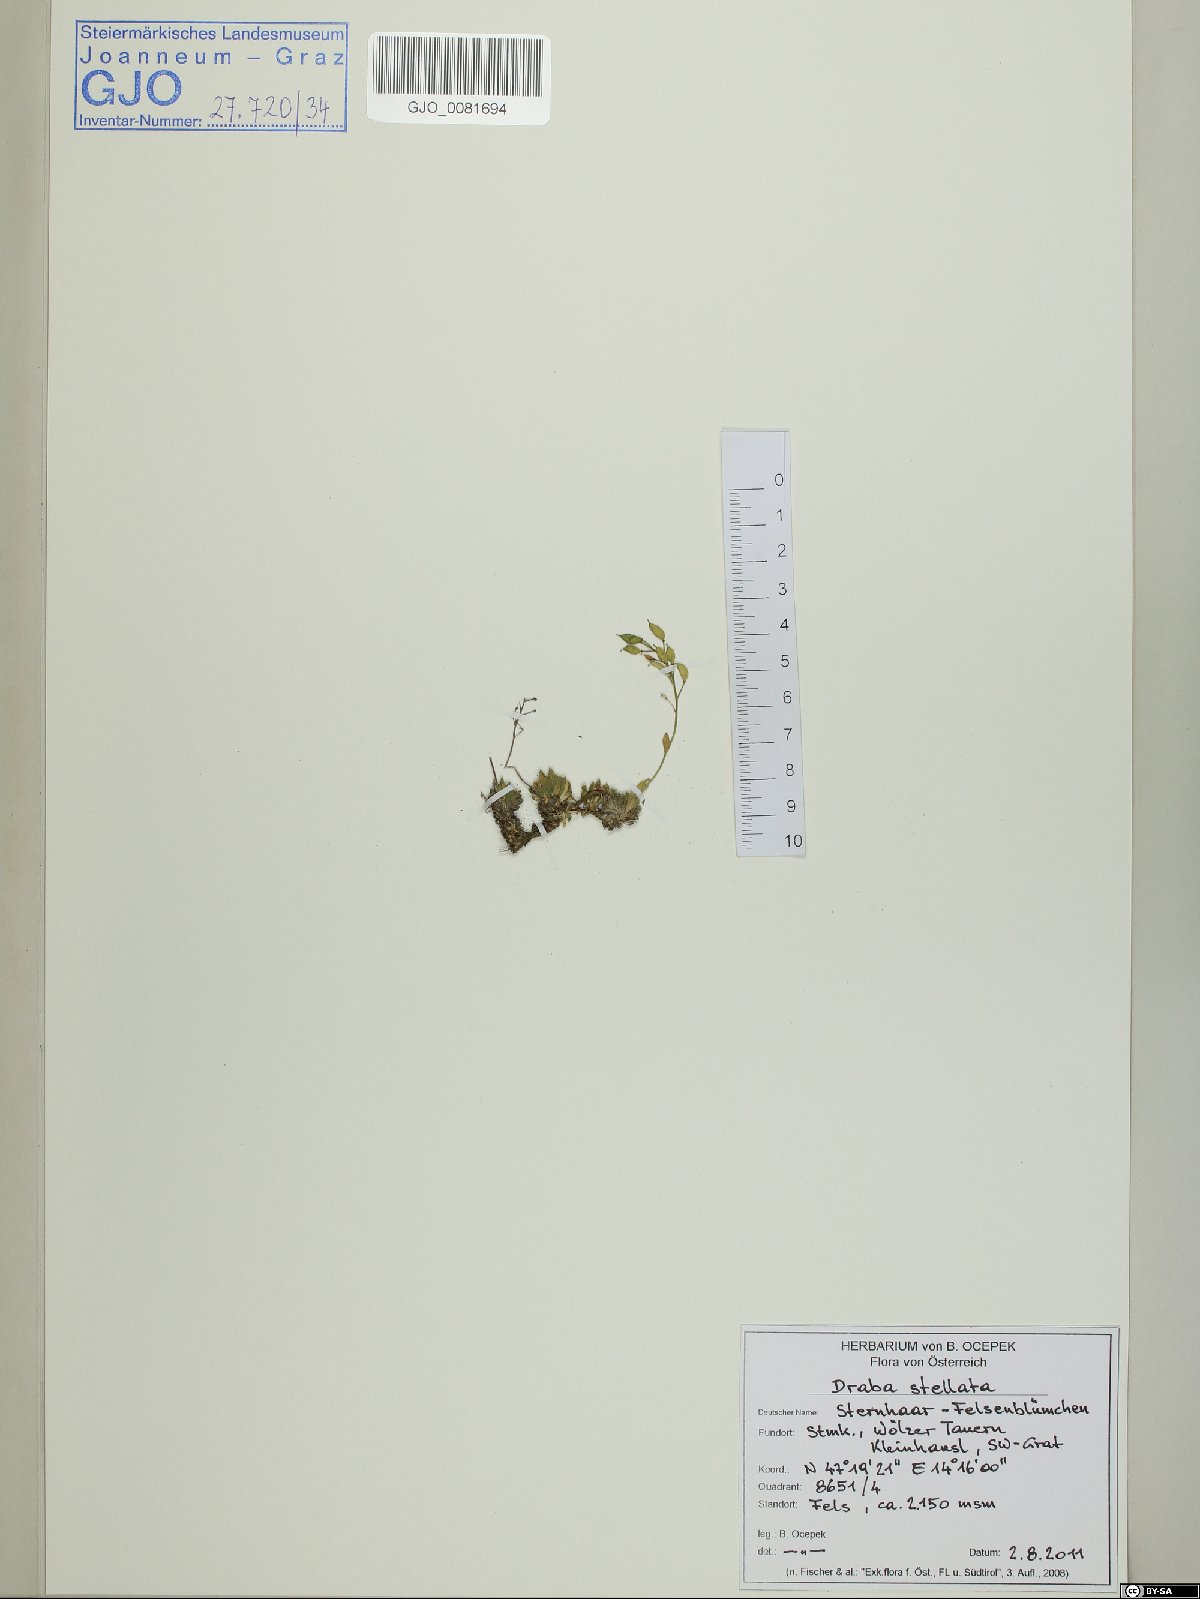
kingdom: Plantae
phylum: Tracheophyta
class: Magnoliopsida
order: Brassicales
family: Brassicaceae
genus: Draba
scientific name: Draba stellata
